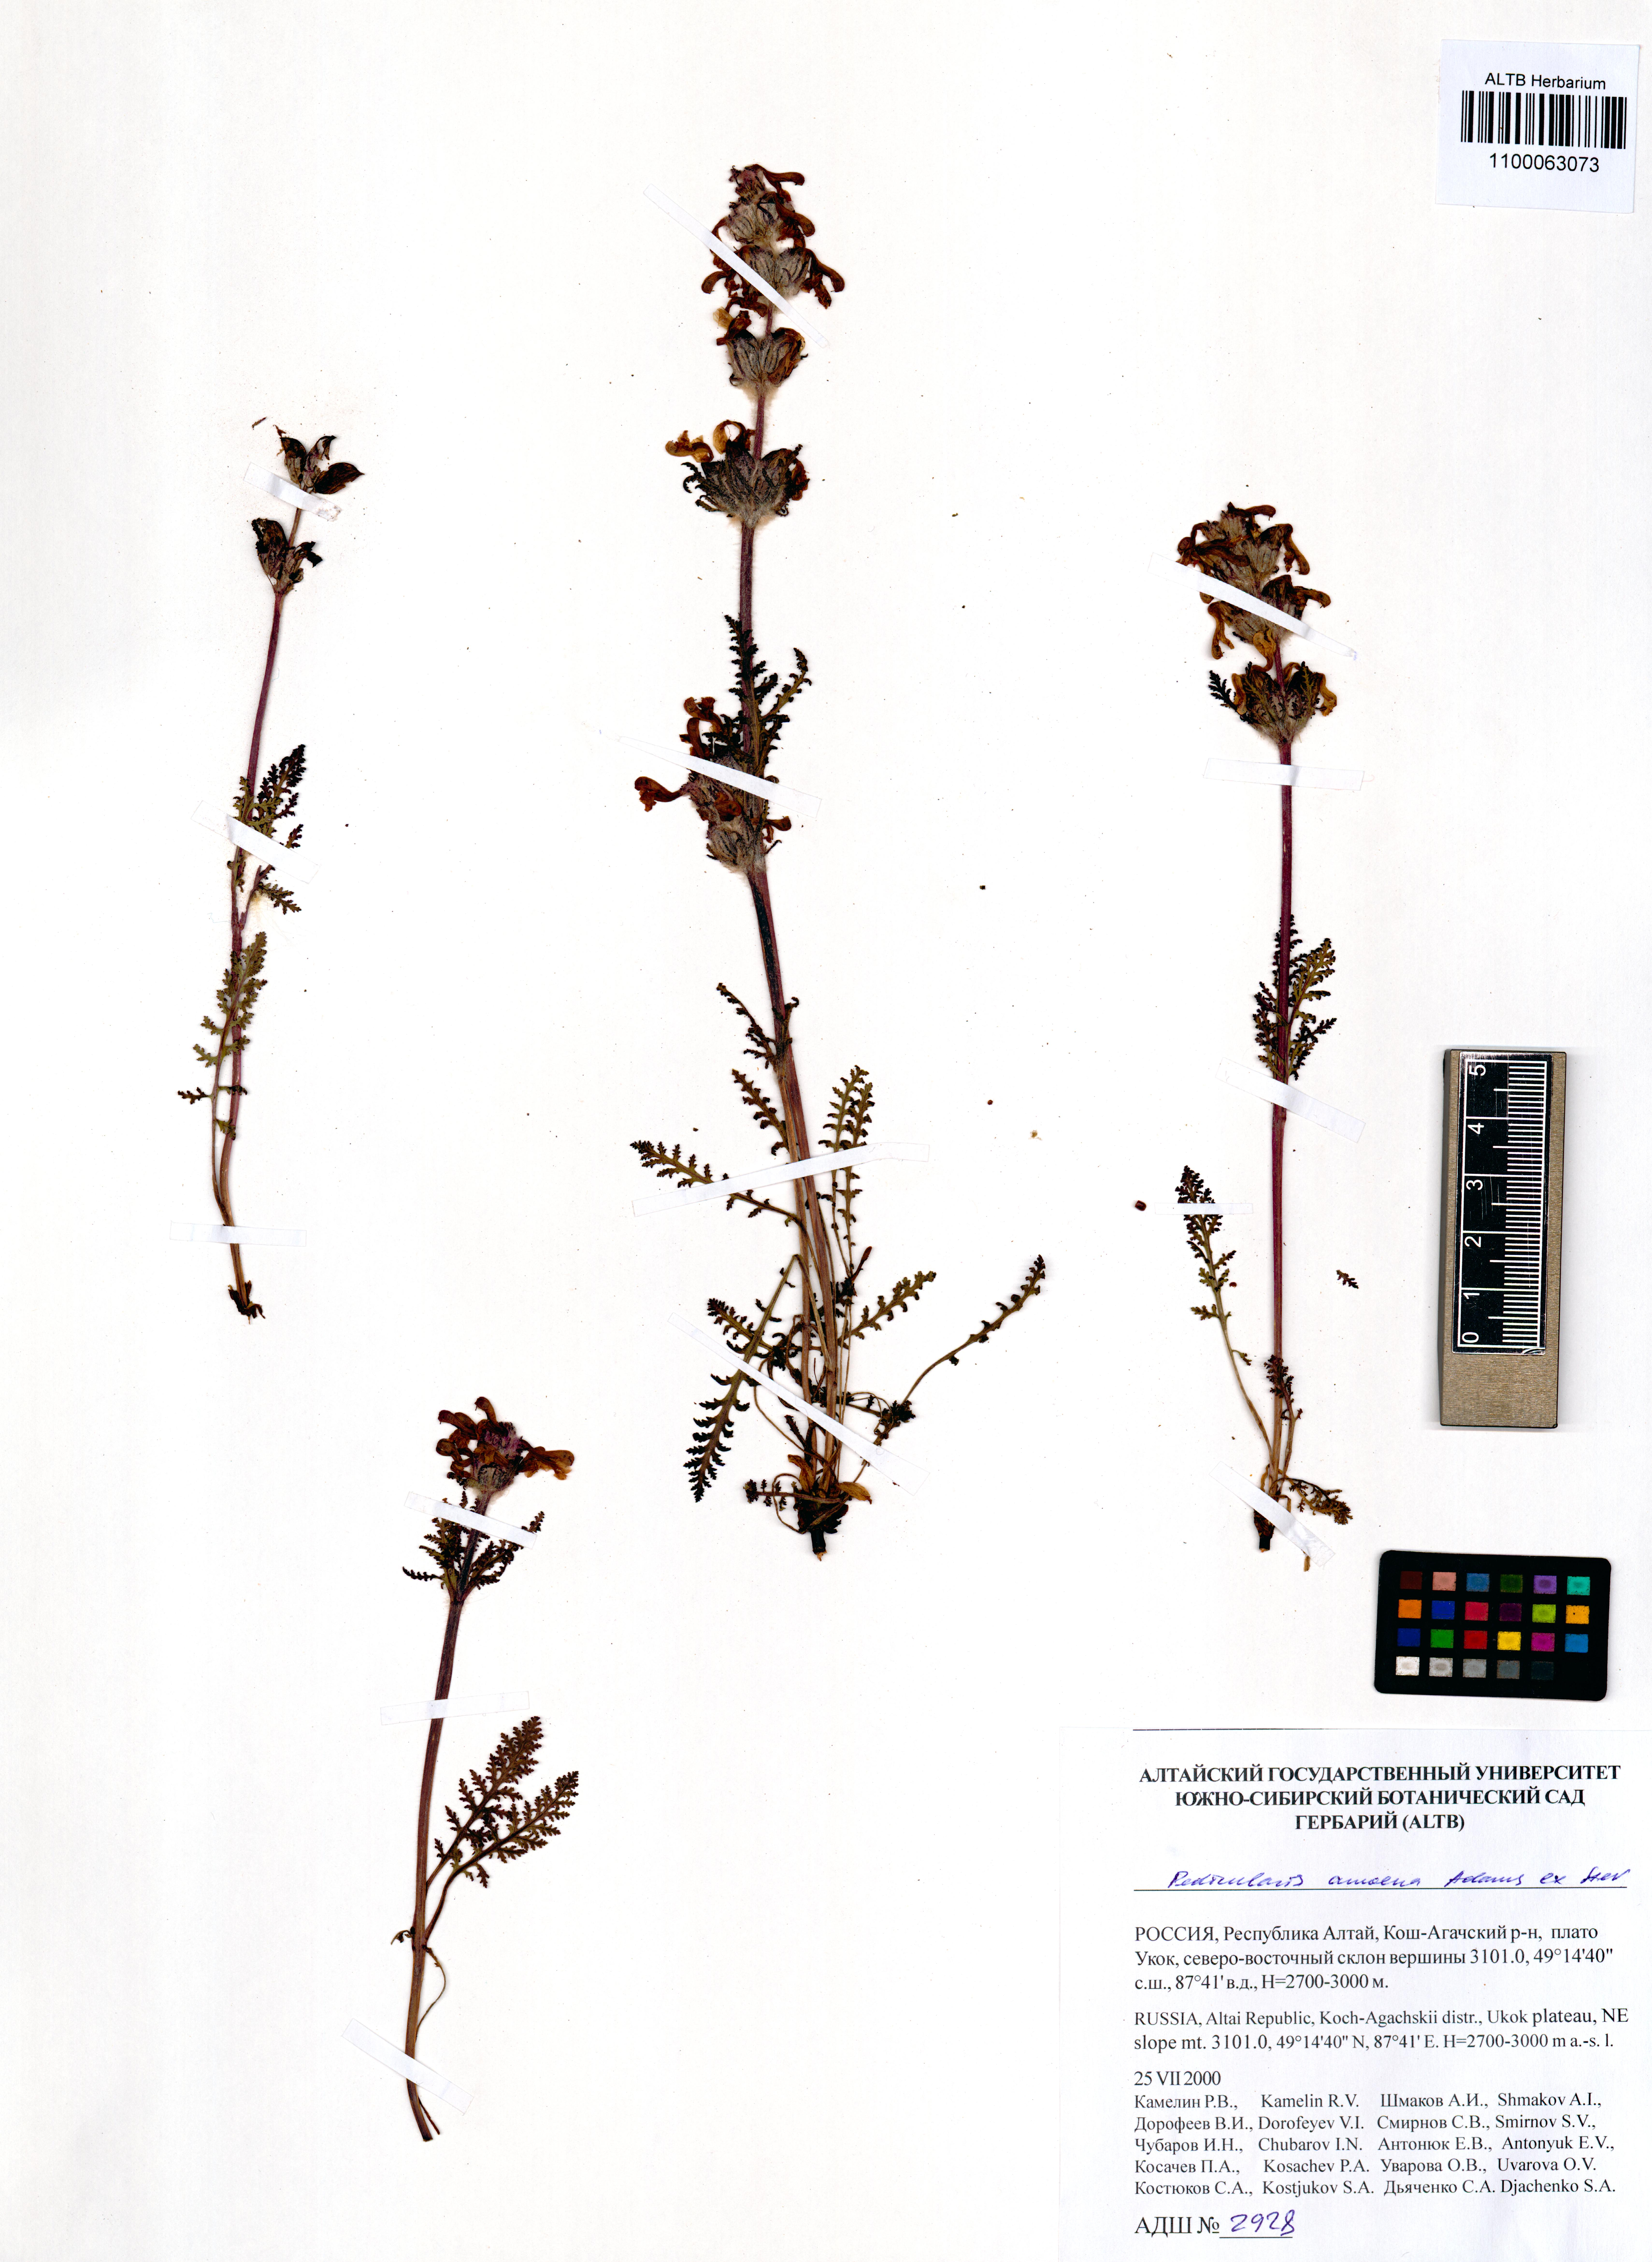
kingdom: Plantae
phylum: Tracheophyta
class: Magnoliopsida
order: Lamiales
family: Orobanchaceae
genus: Pedicularis
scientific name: Pedicularis amoena
